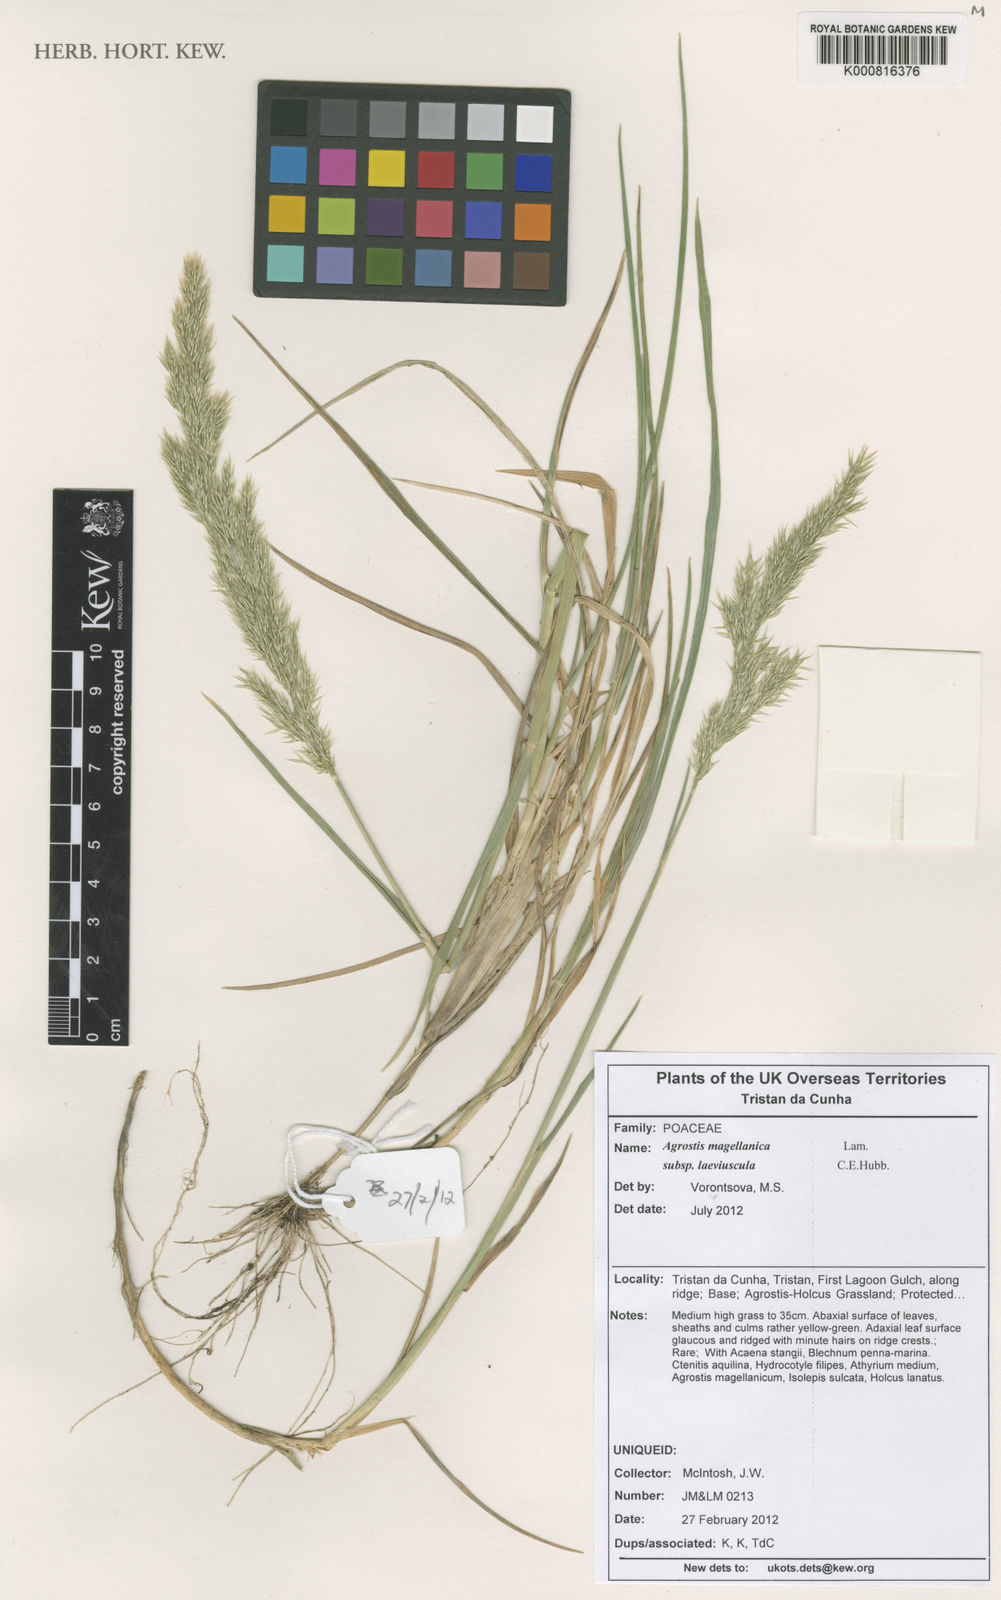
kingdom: Plantae
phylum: Tracheophyta
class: Liliopsida
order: Poales
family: Poaceae
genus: Polypogon
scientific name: Polypogon magellanicus
